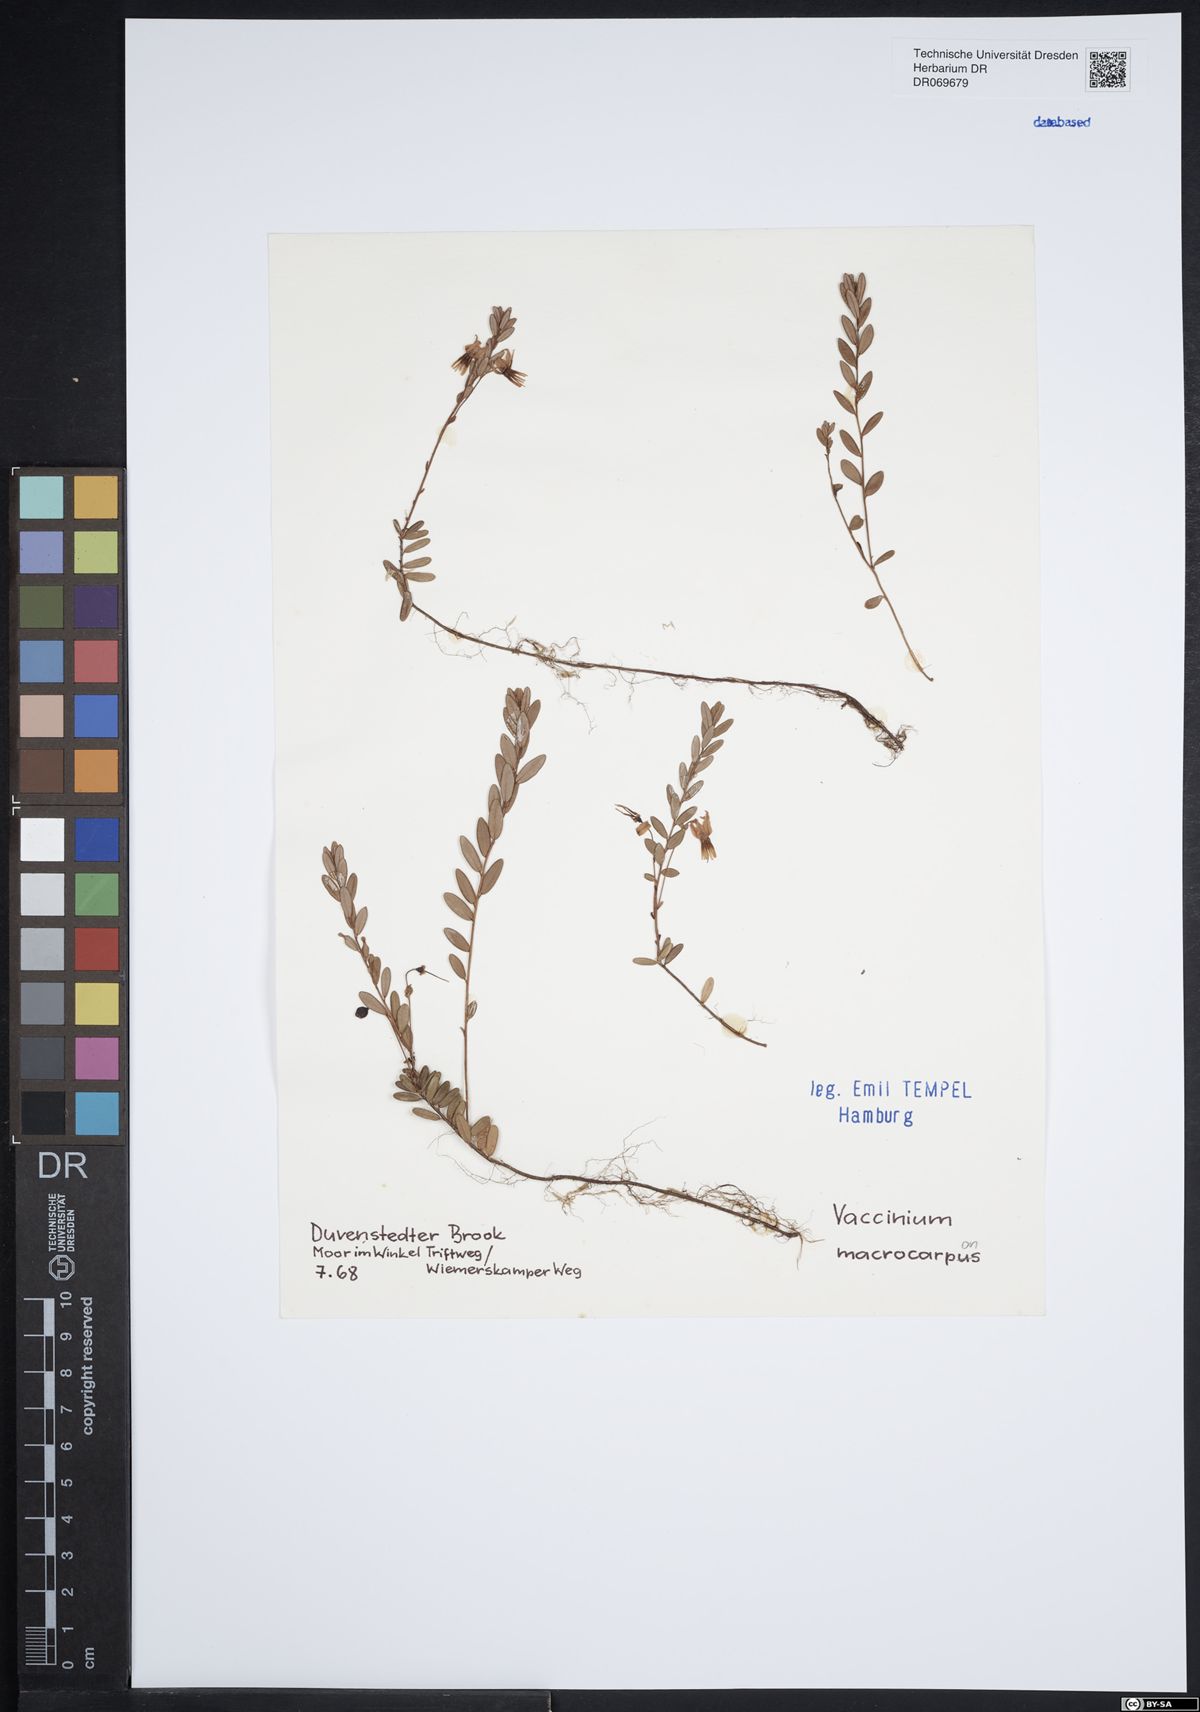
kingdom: Plantae
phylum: Tracheophyta
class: Magnoliopsida
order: Ericales
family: Ericaceae
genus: Vaccinium
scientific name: Vaccinium macrocarpon
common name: American cranberry
